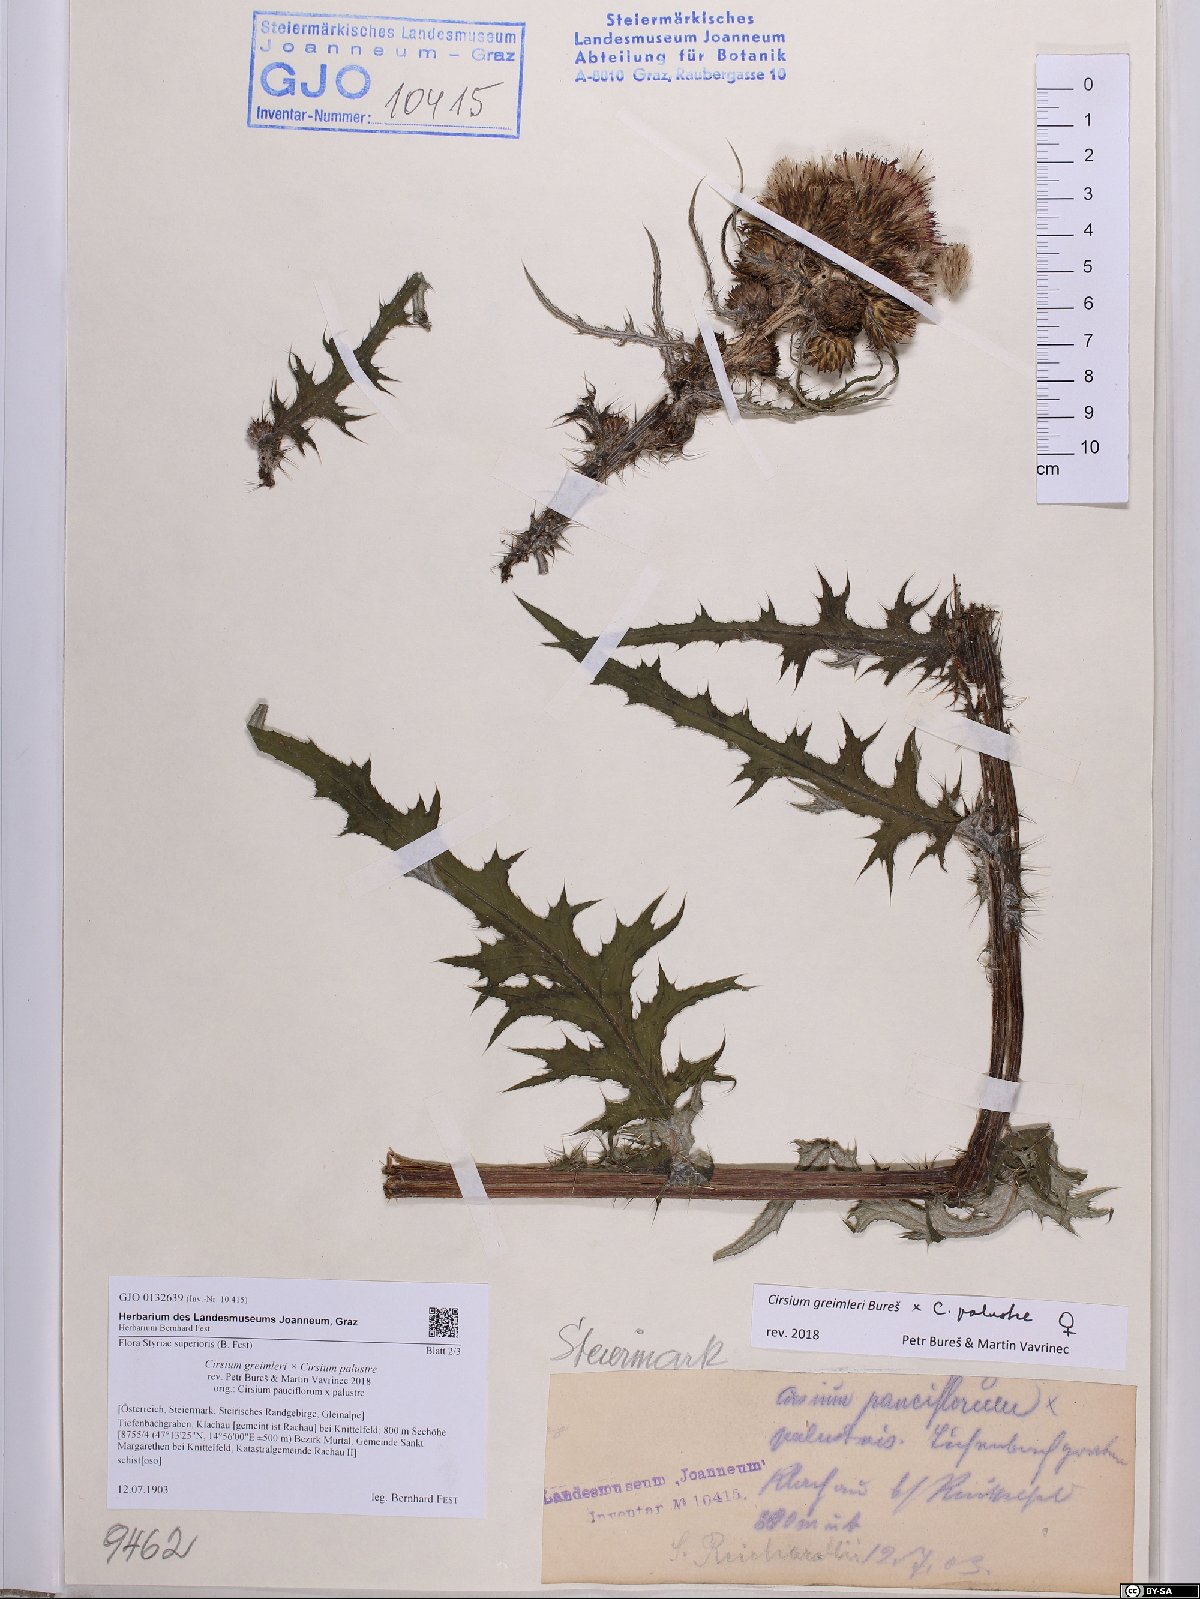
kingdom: Plantae
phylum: Tracheophyta
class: Magnoliopsida
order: Asterales
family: Asteraceae
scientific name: Asteraceae
